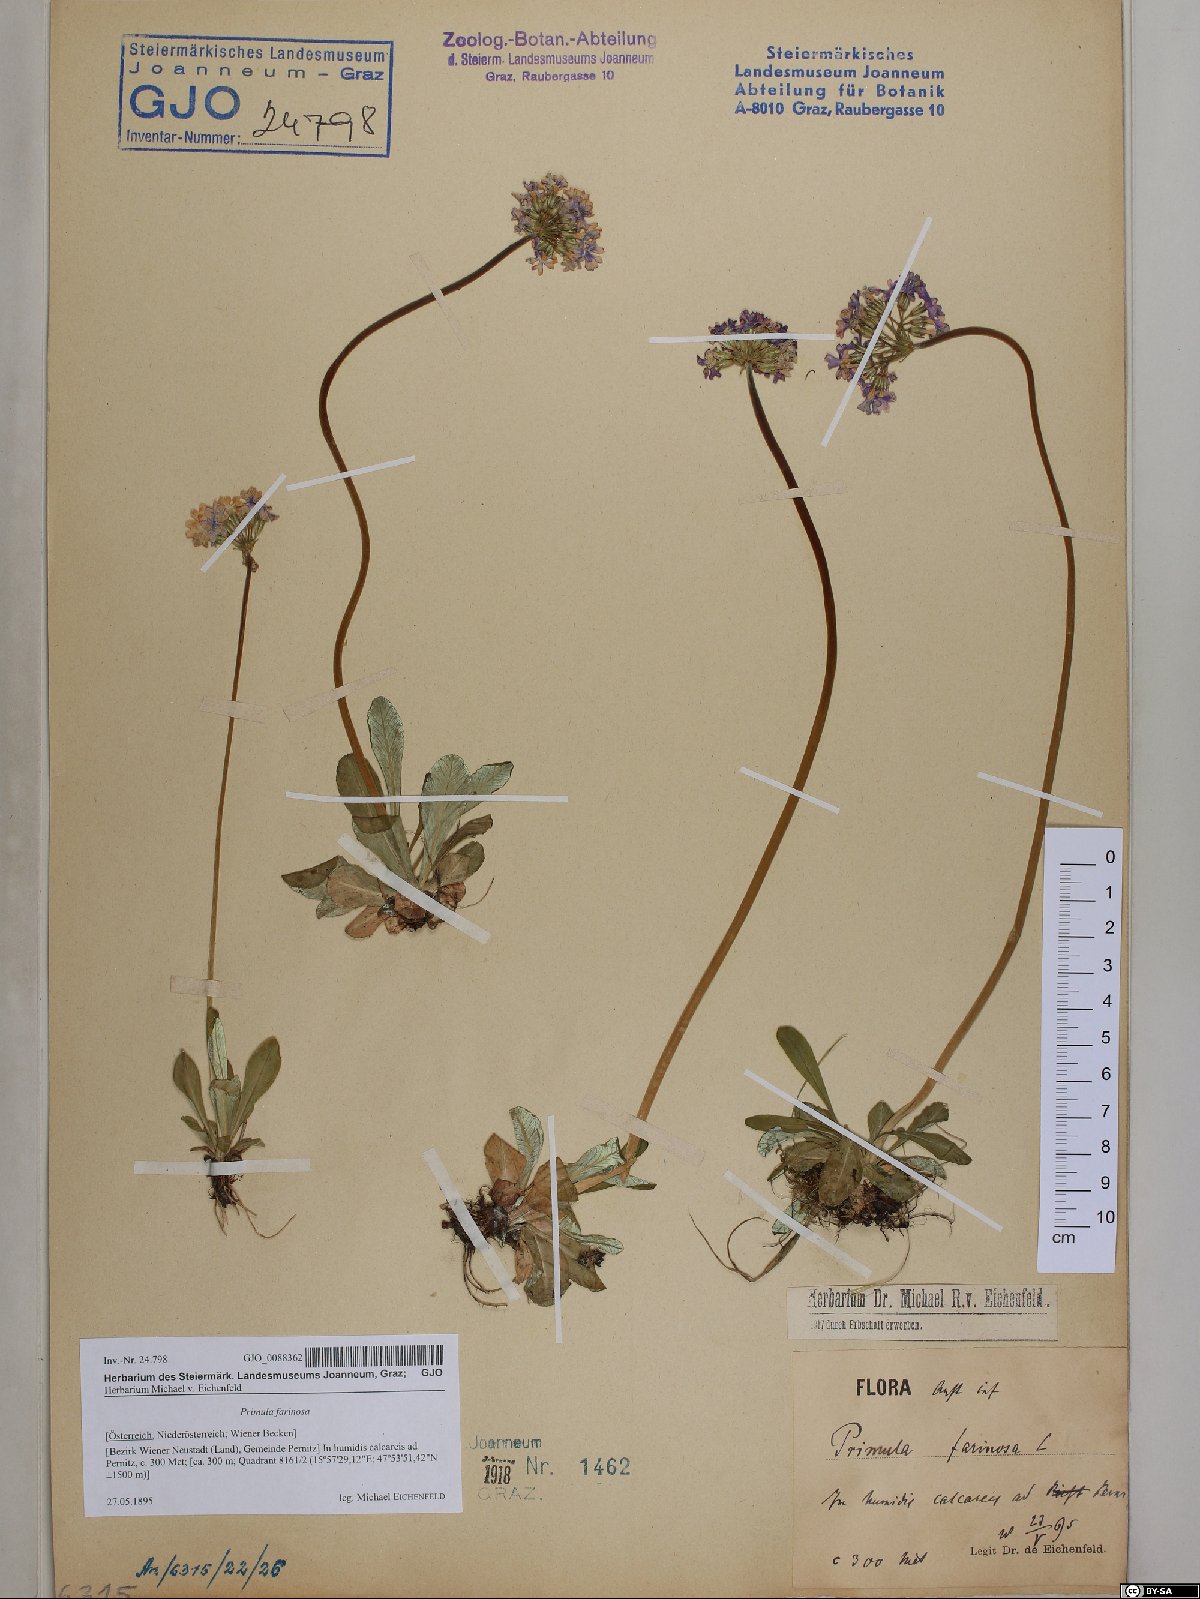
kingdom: Plantae
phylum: Tracheophyta
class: Magnoliopsida
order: Ericales
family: Primulaceae
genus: Primula
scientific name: Primula farinosa
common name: Bird's-eye primrose
